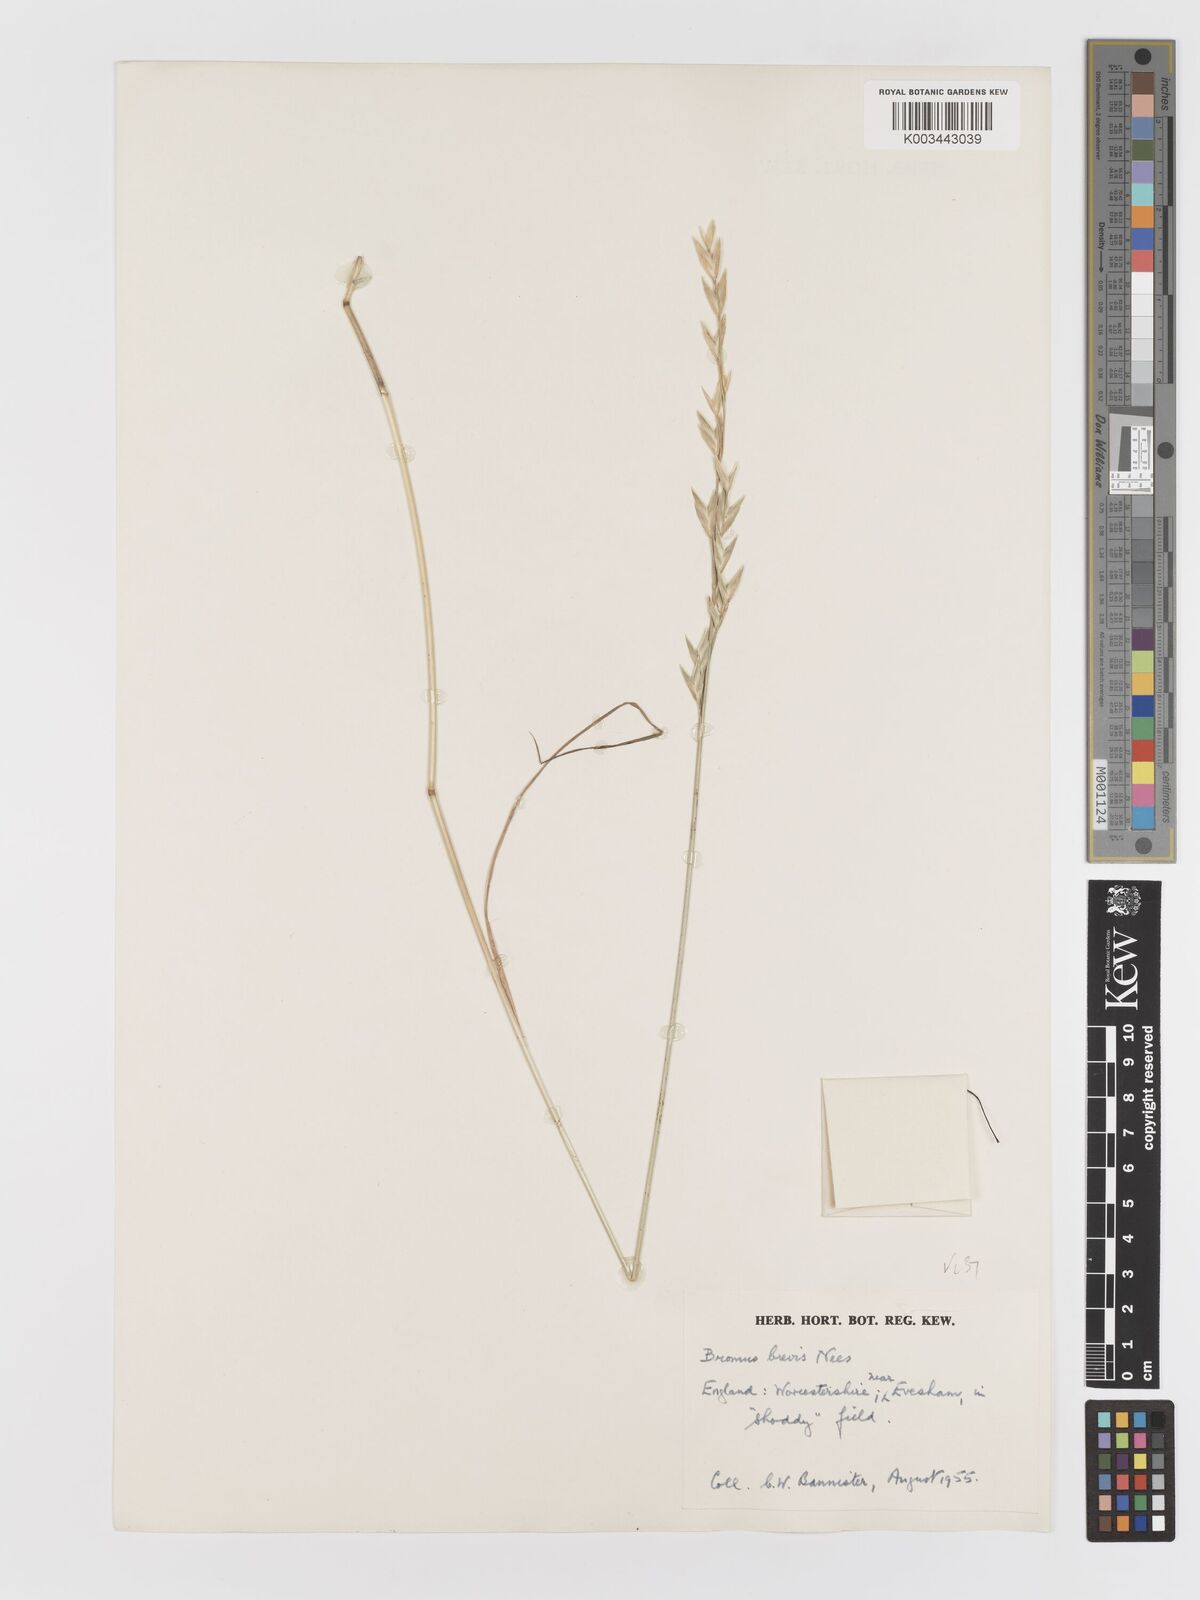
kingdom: Plantae
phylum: Tracheophyta
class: Liliopsida
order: Poales
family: Poaceae
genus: Bromus
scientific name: Bromus catharticus
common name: Rescuegrass
